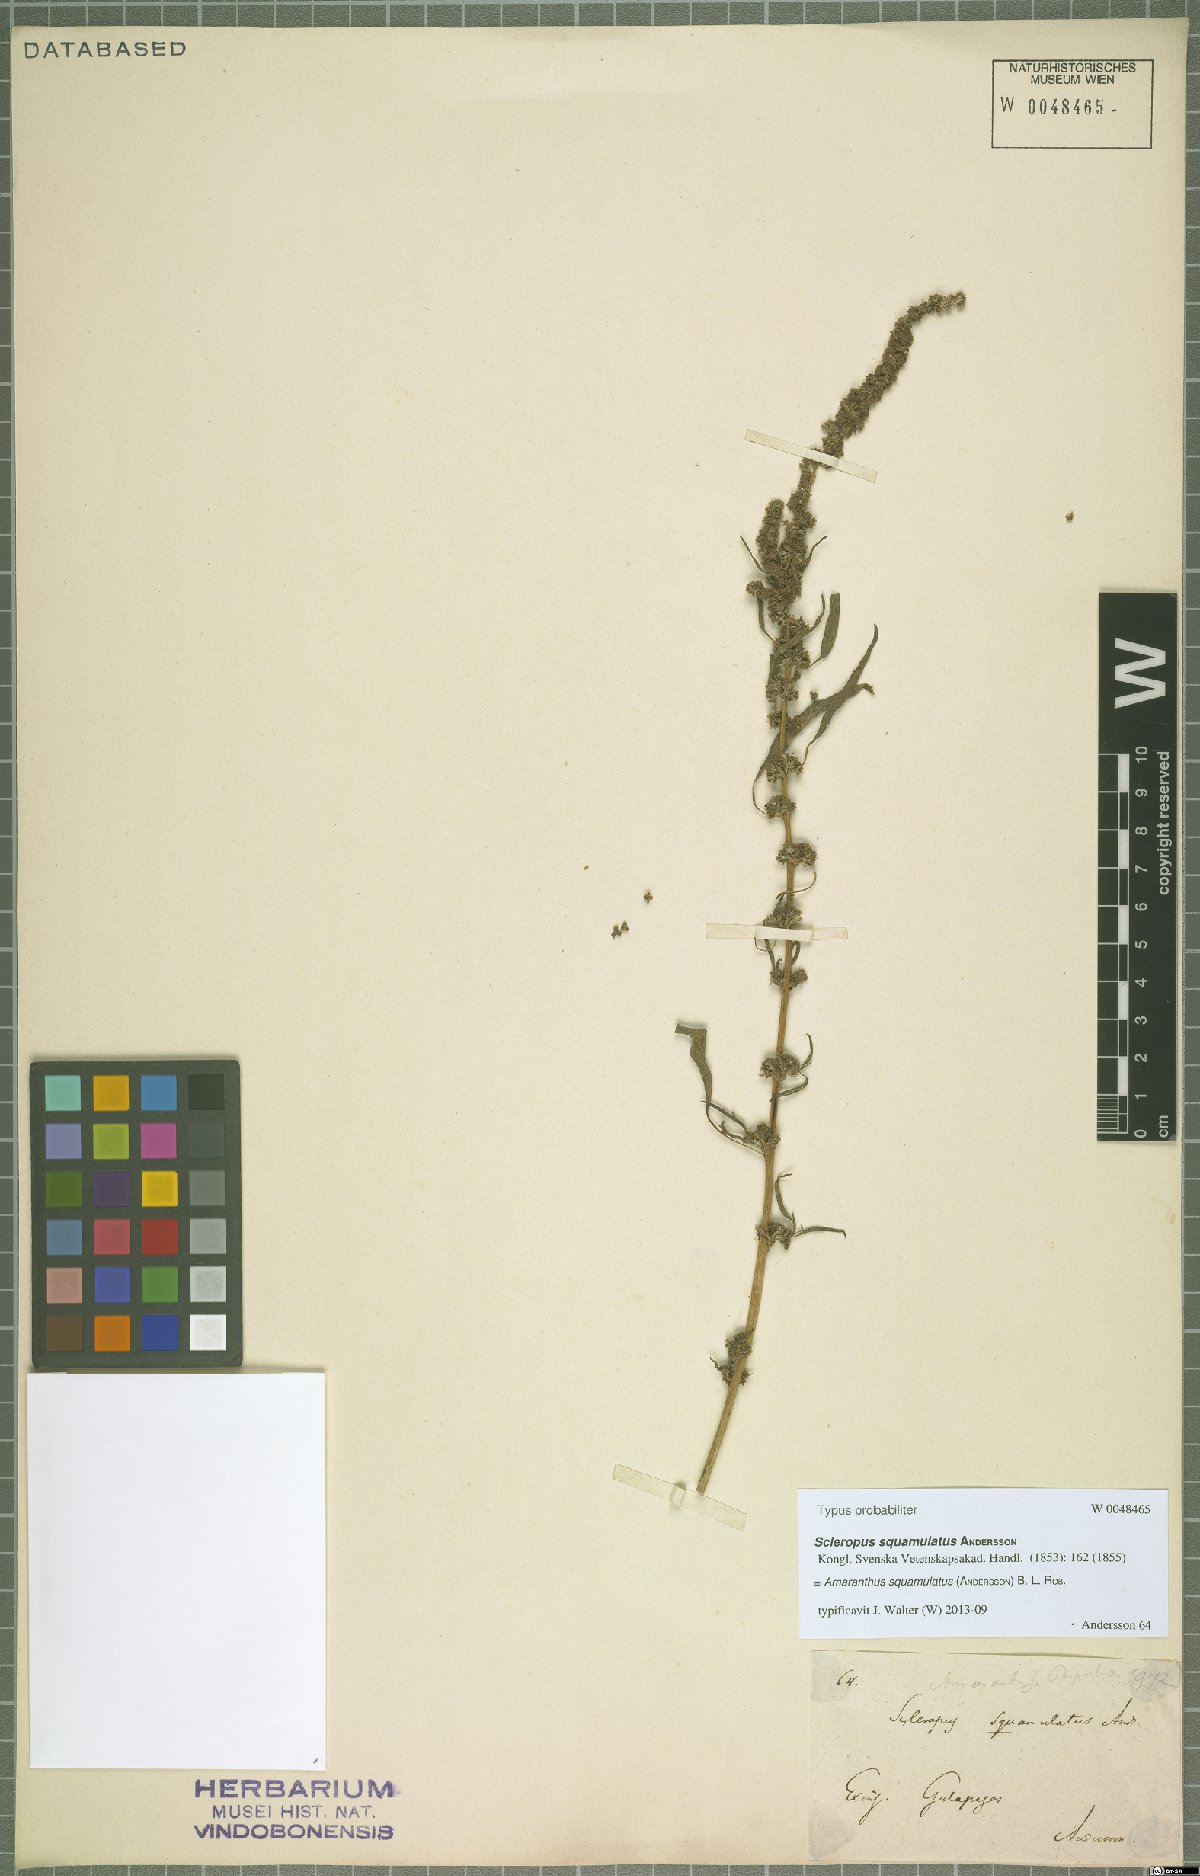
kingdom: Plantae
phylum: Tracheophyta
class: Magnoliopsida
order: Caryophyllales
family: Amaranthaceae
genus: Amaranthus
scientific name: Amaranthus squamulatus
